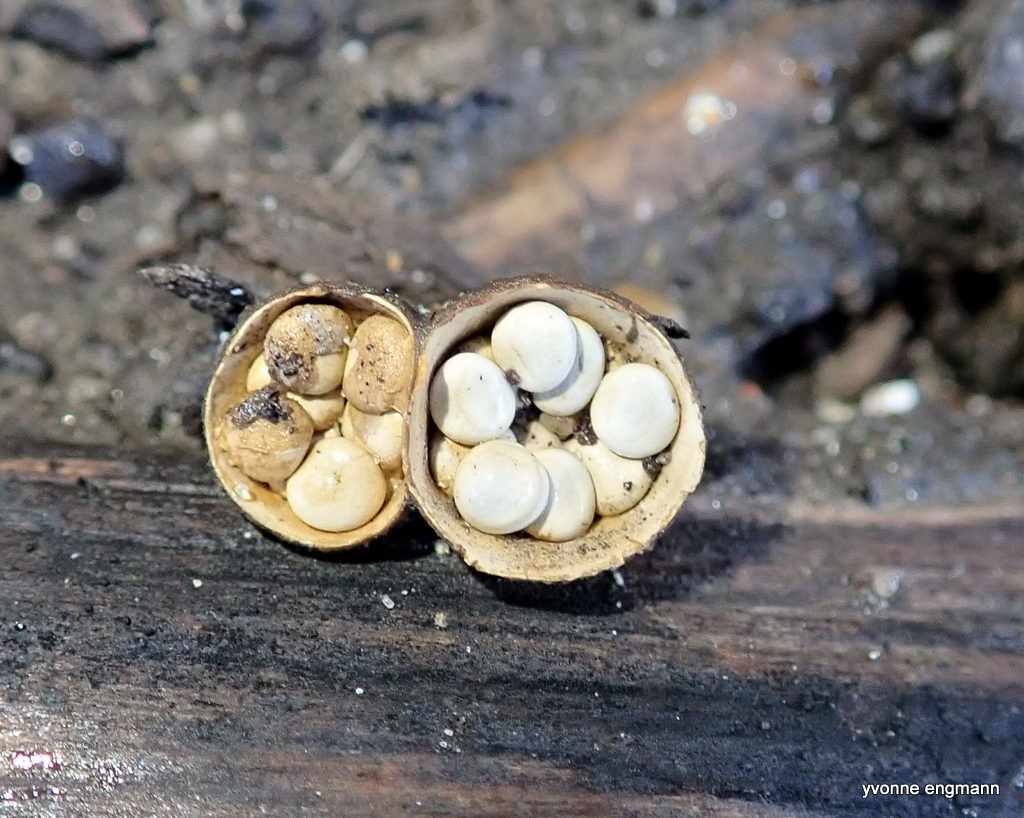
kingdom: Fungi
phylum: Basidiomycota
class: Agaricomycetes
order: Agaricales
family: Nidulariaceae
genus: Crucibulum
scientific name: Crucibulum crucibuliforme
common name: krukkesvamp
